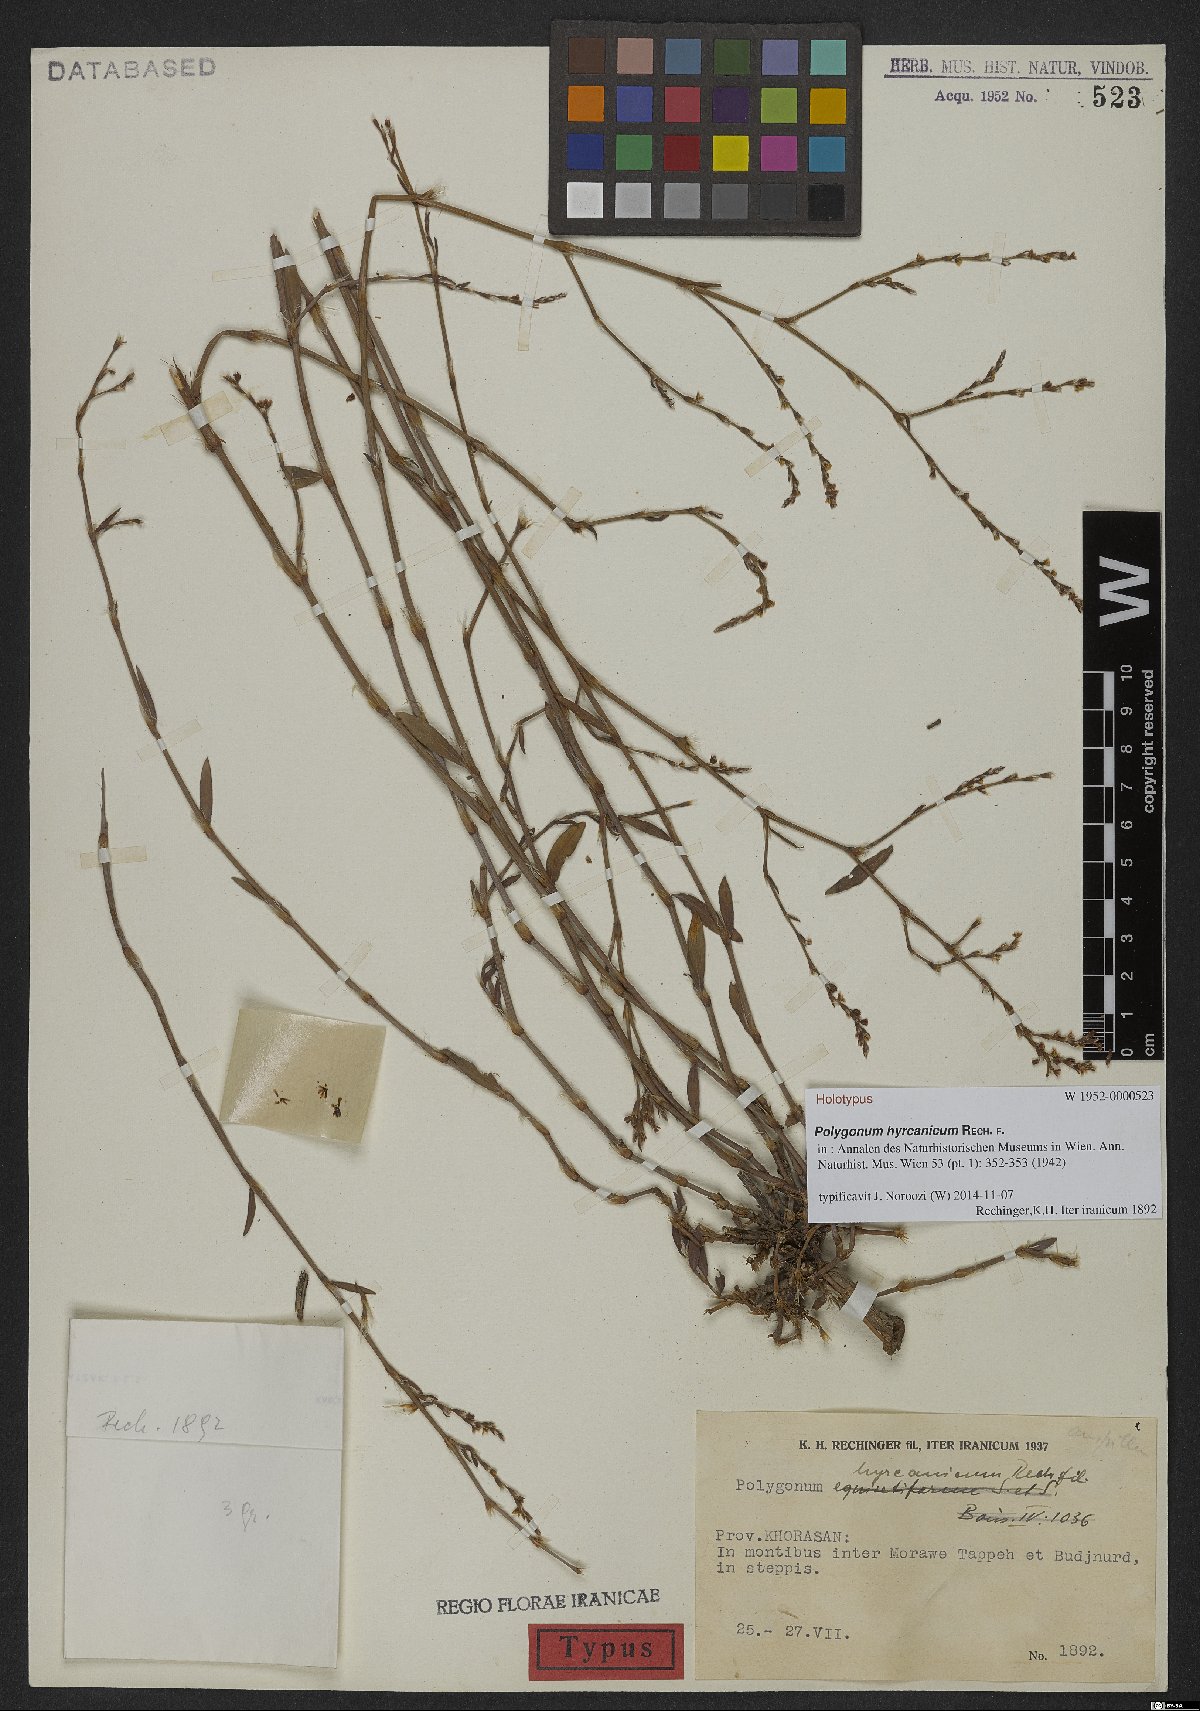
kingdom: Plantae
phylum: Tracheophyta
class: Magnoliopsida
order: Caryophyllales
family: Polygonaceae
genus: Polygonum
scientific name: Polygonum hyrcanicum
